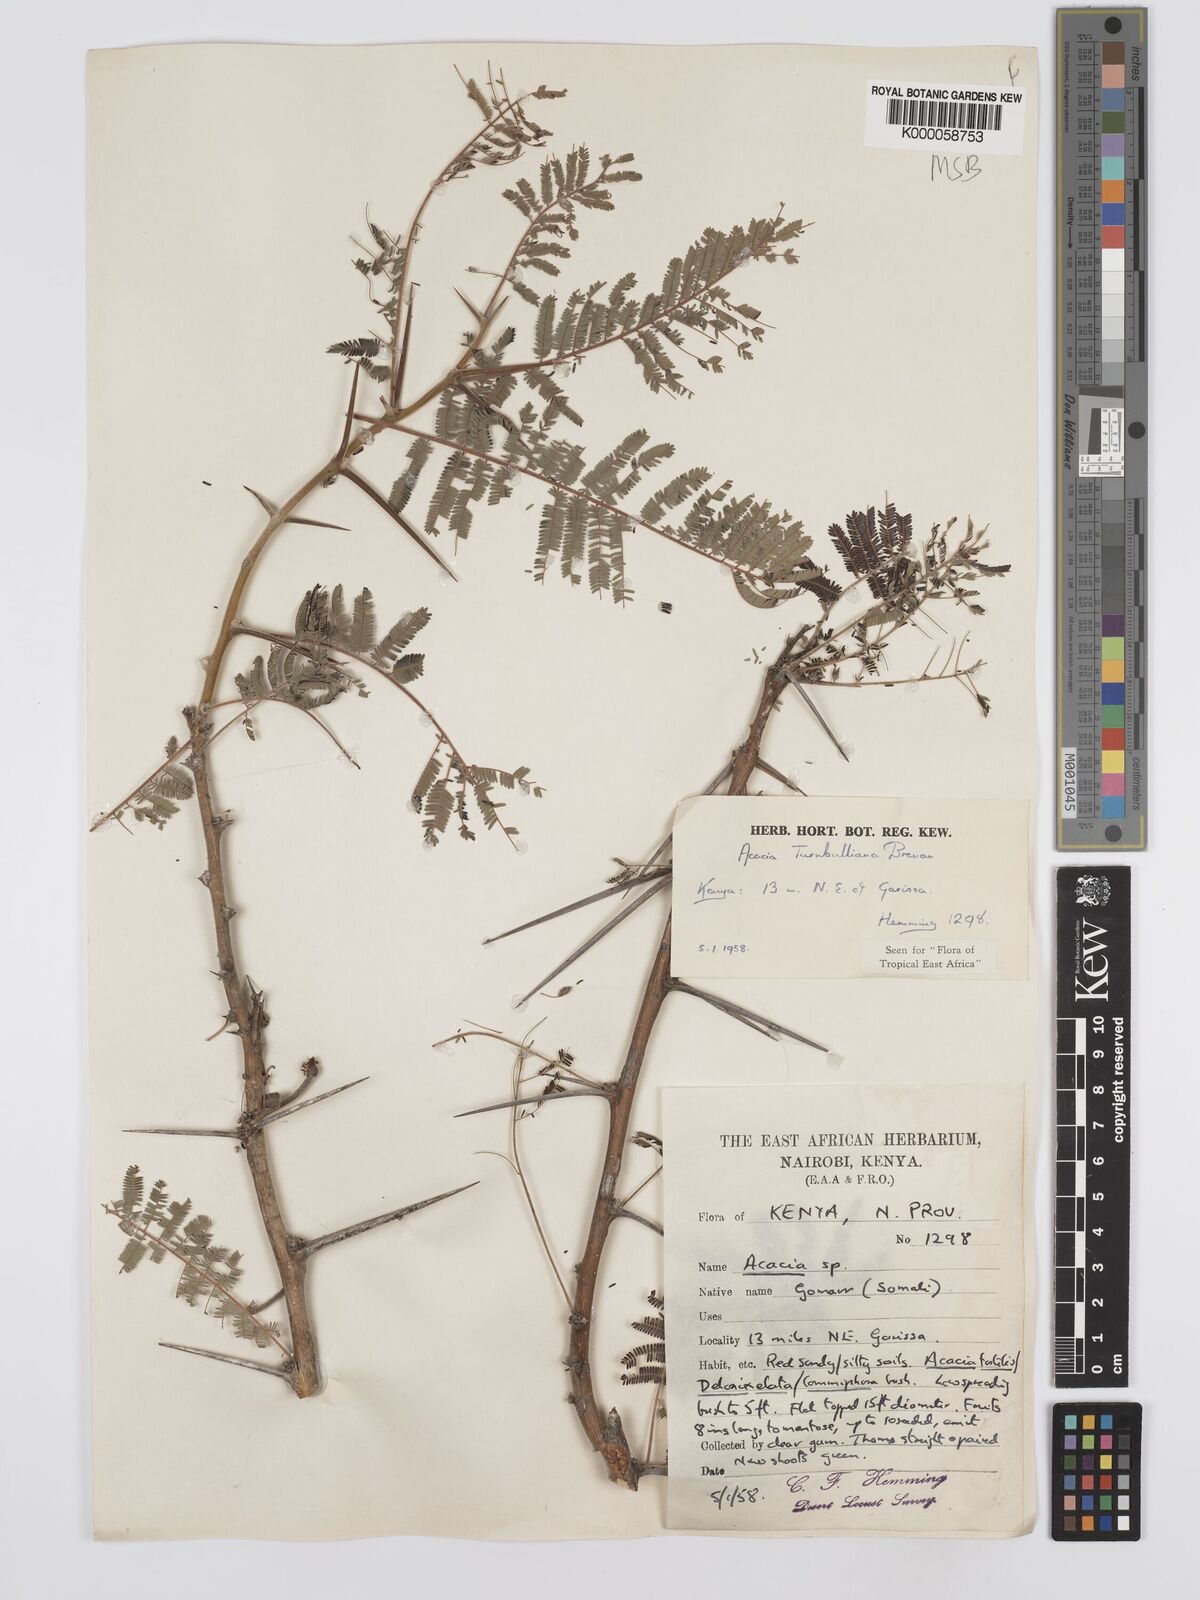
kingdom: Plantae
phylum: Tracheophyta
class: Magnoliopsida
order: Fabales
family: Fabaceae
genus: Vachellia
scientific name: Vachellia edgeworthii
